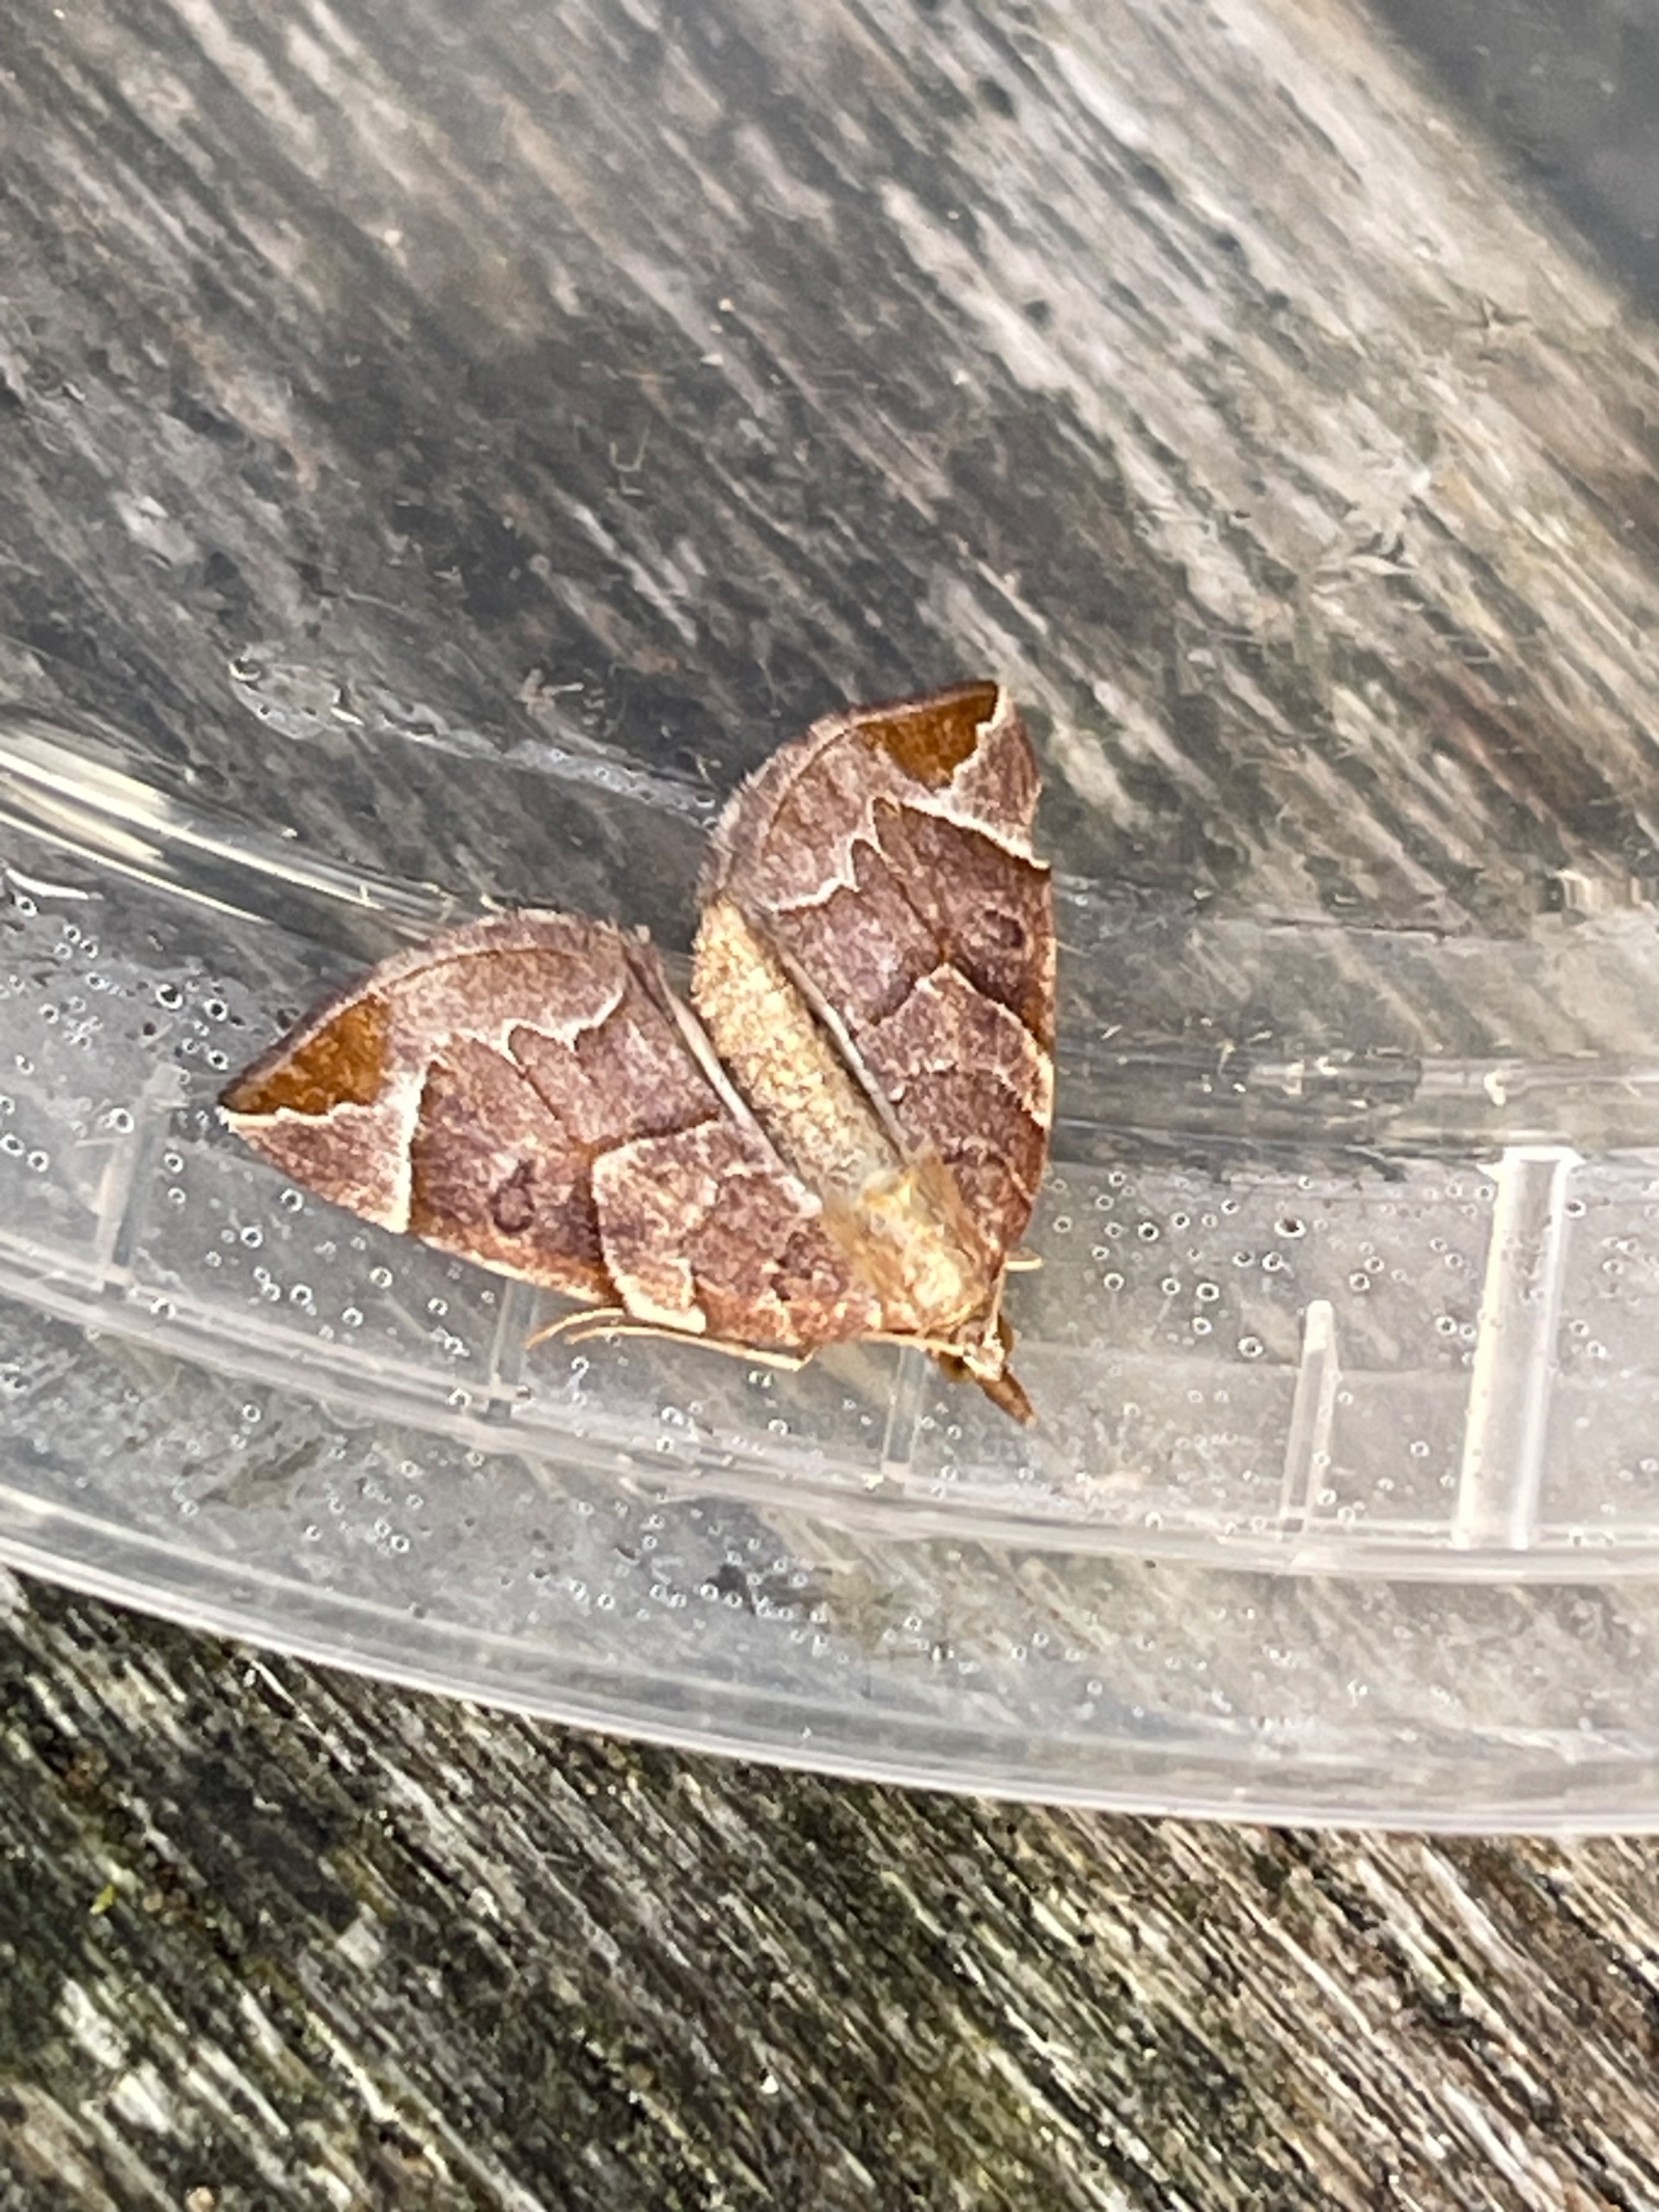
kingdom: Animalia
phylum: Arthropoda
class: Insecta
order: Lepidoptera
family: Geometridae
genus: Eulithis
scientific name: Eulithis testata
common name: Pile-havemåler
